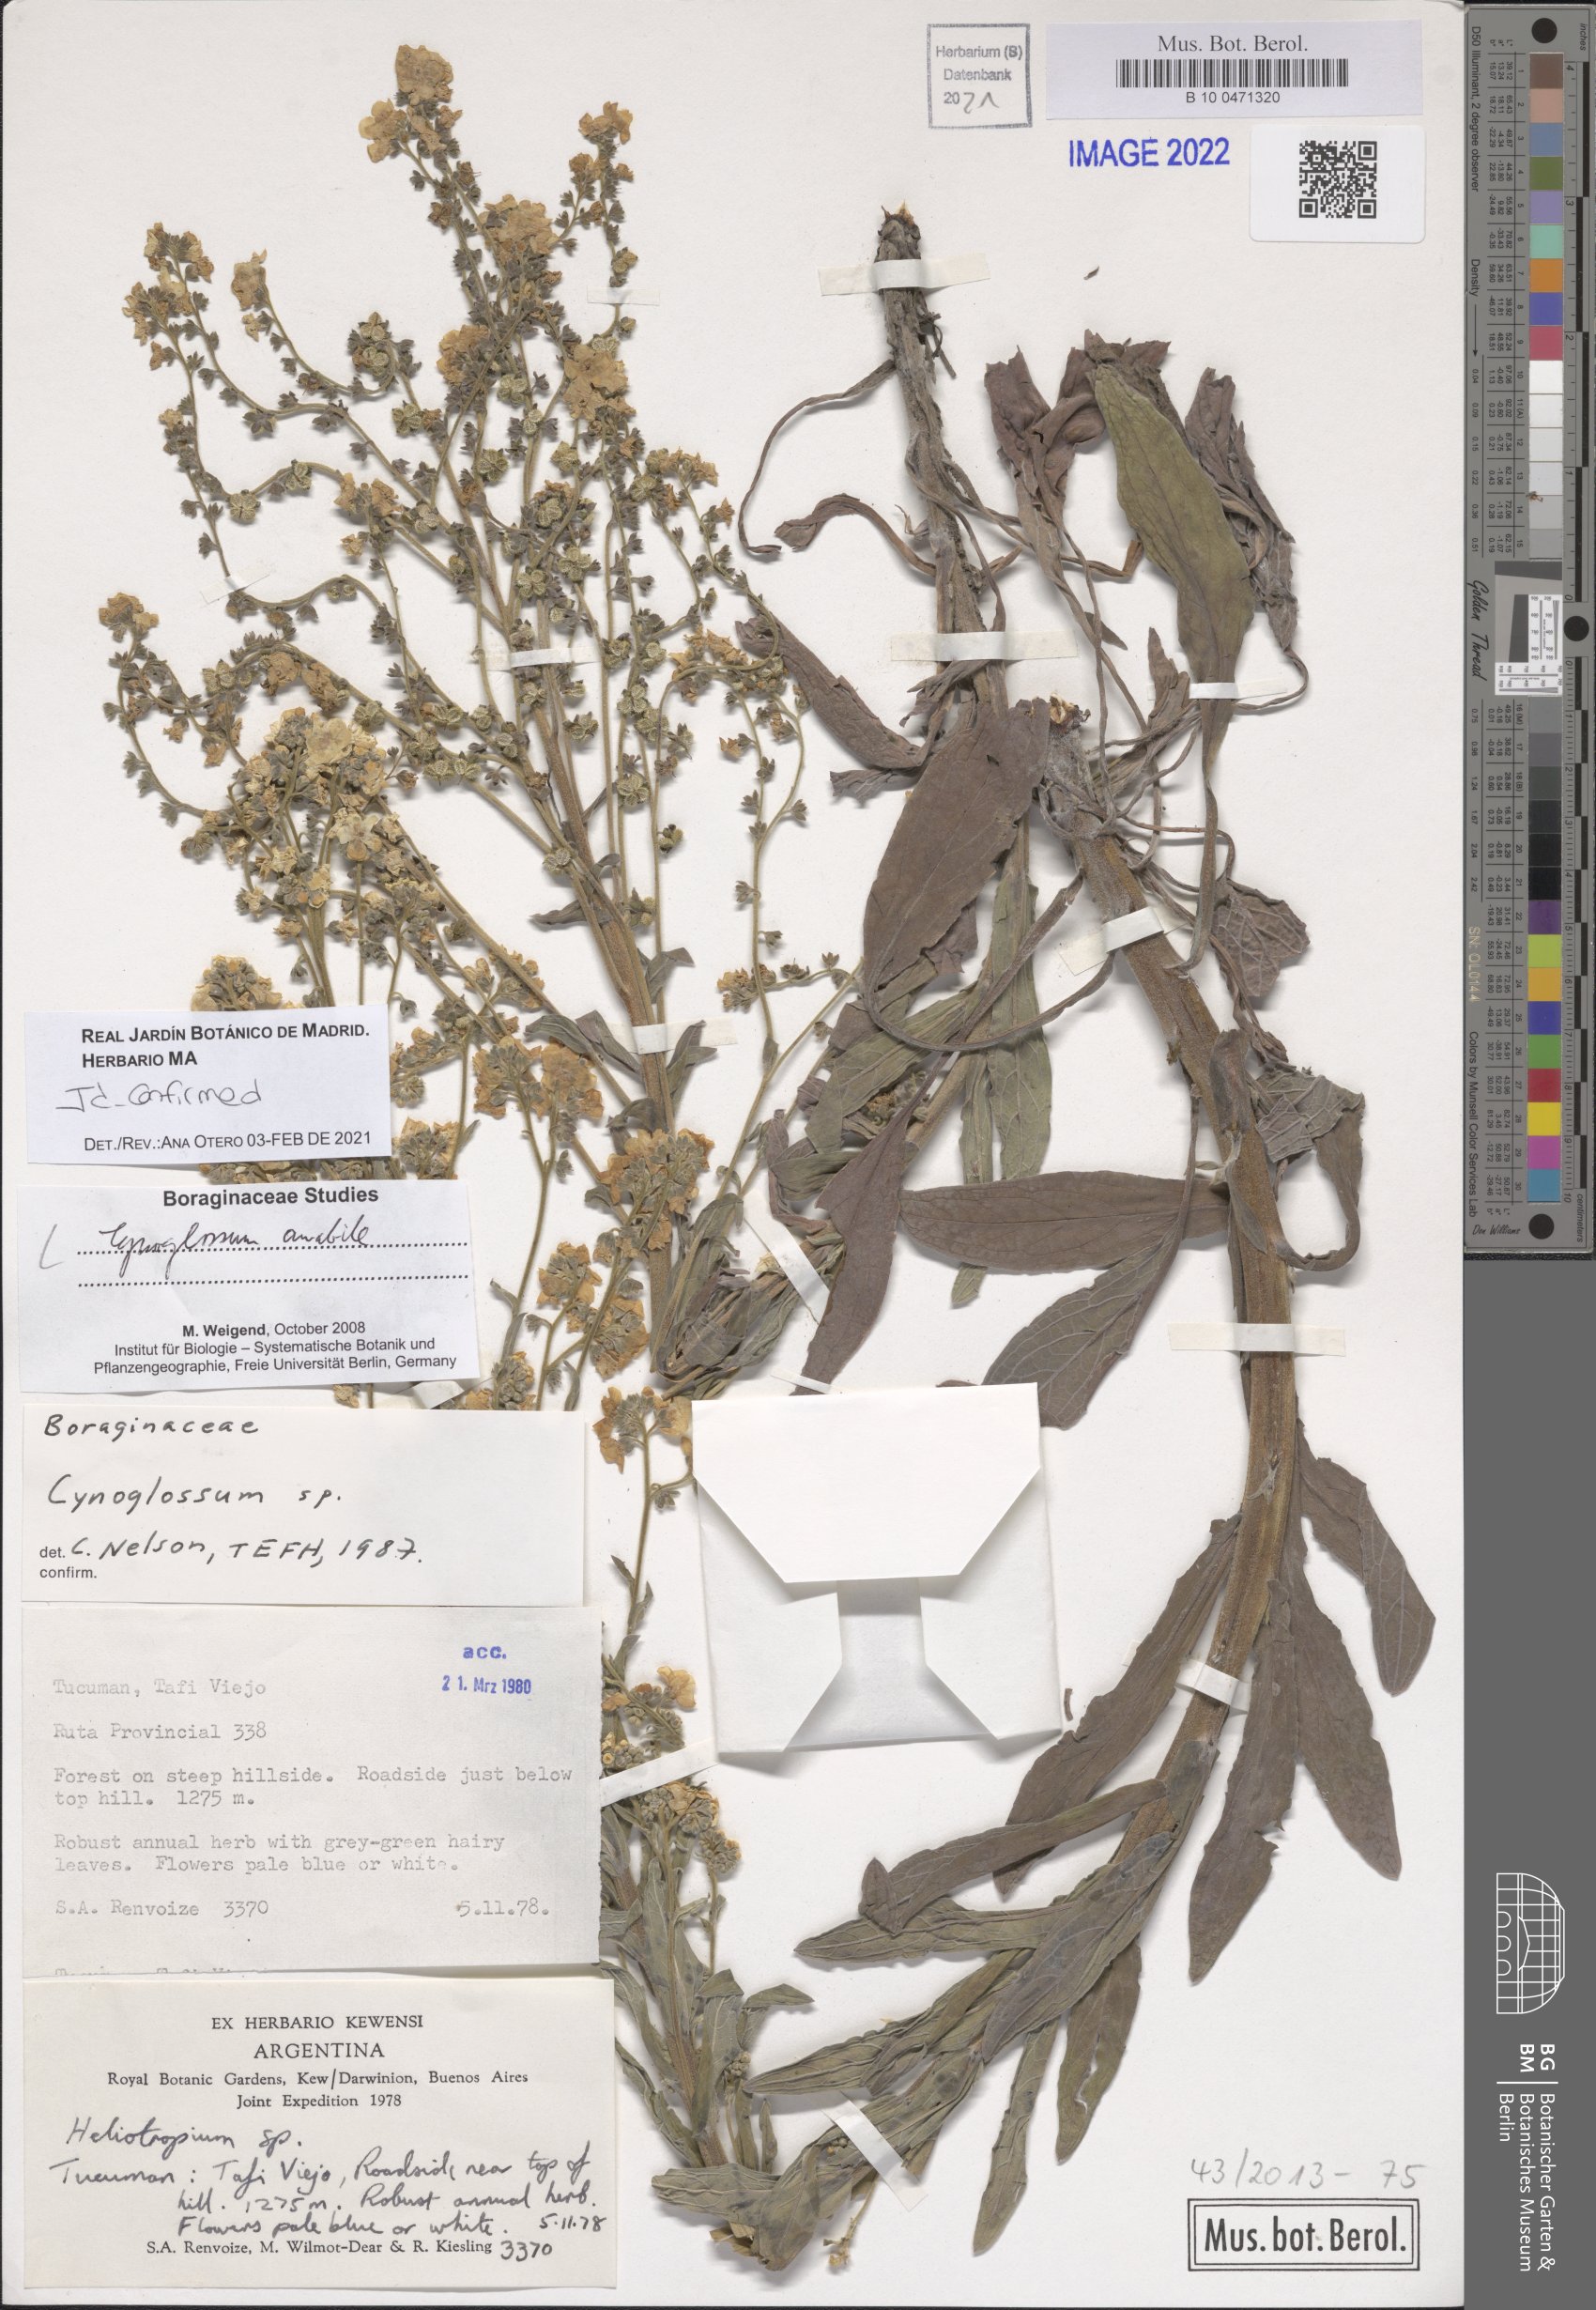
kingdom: Plantae
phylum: Tracheophyta
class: Magnoliopsida
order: Boraginales
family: Boraginaceae
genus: Cynoglossum
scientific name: Cynoglossum amabile
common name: Chinese hound's tongue
